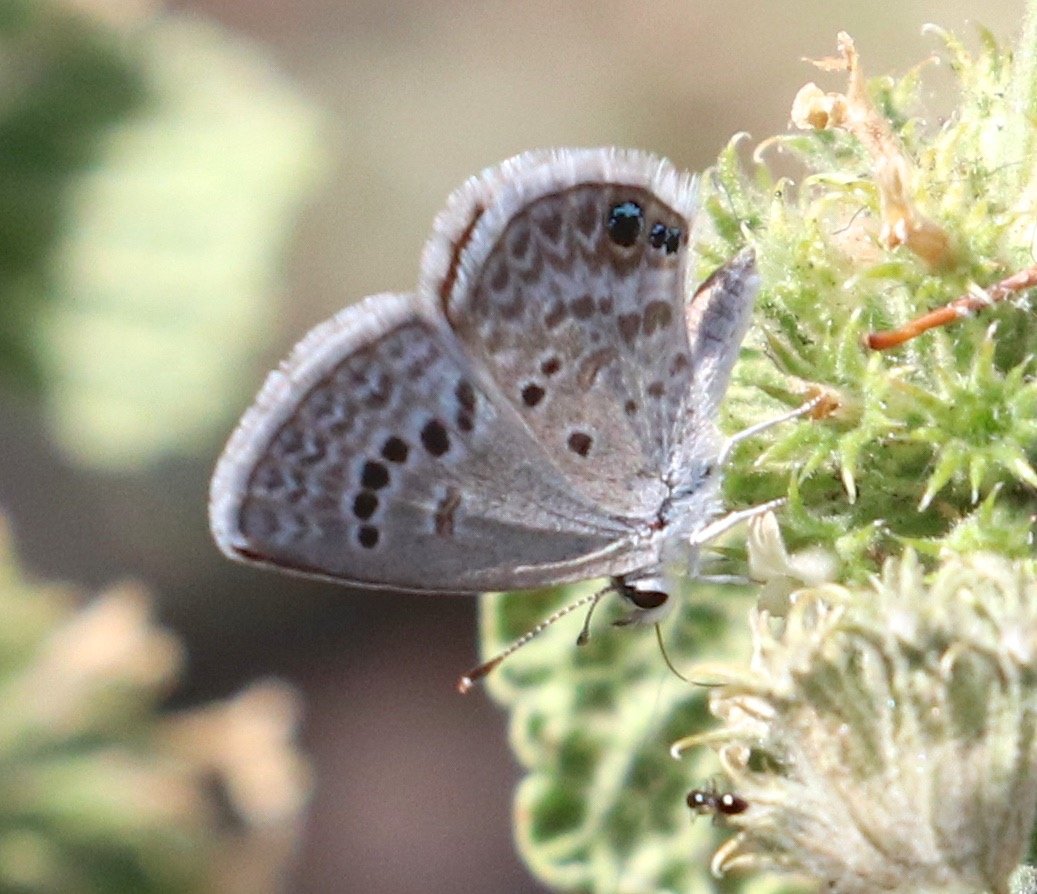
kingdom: Animalia
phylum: Arthropoda
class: Insecta
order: Lepidoptera
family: Lycaenidae
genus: Echinargus
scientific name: Echinargus isola
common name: Reakirt's Blue
